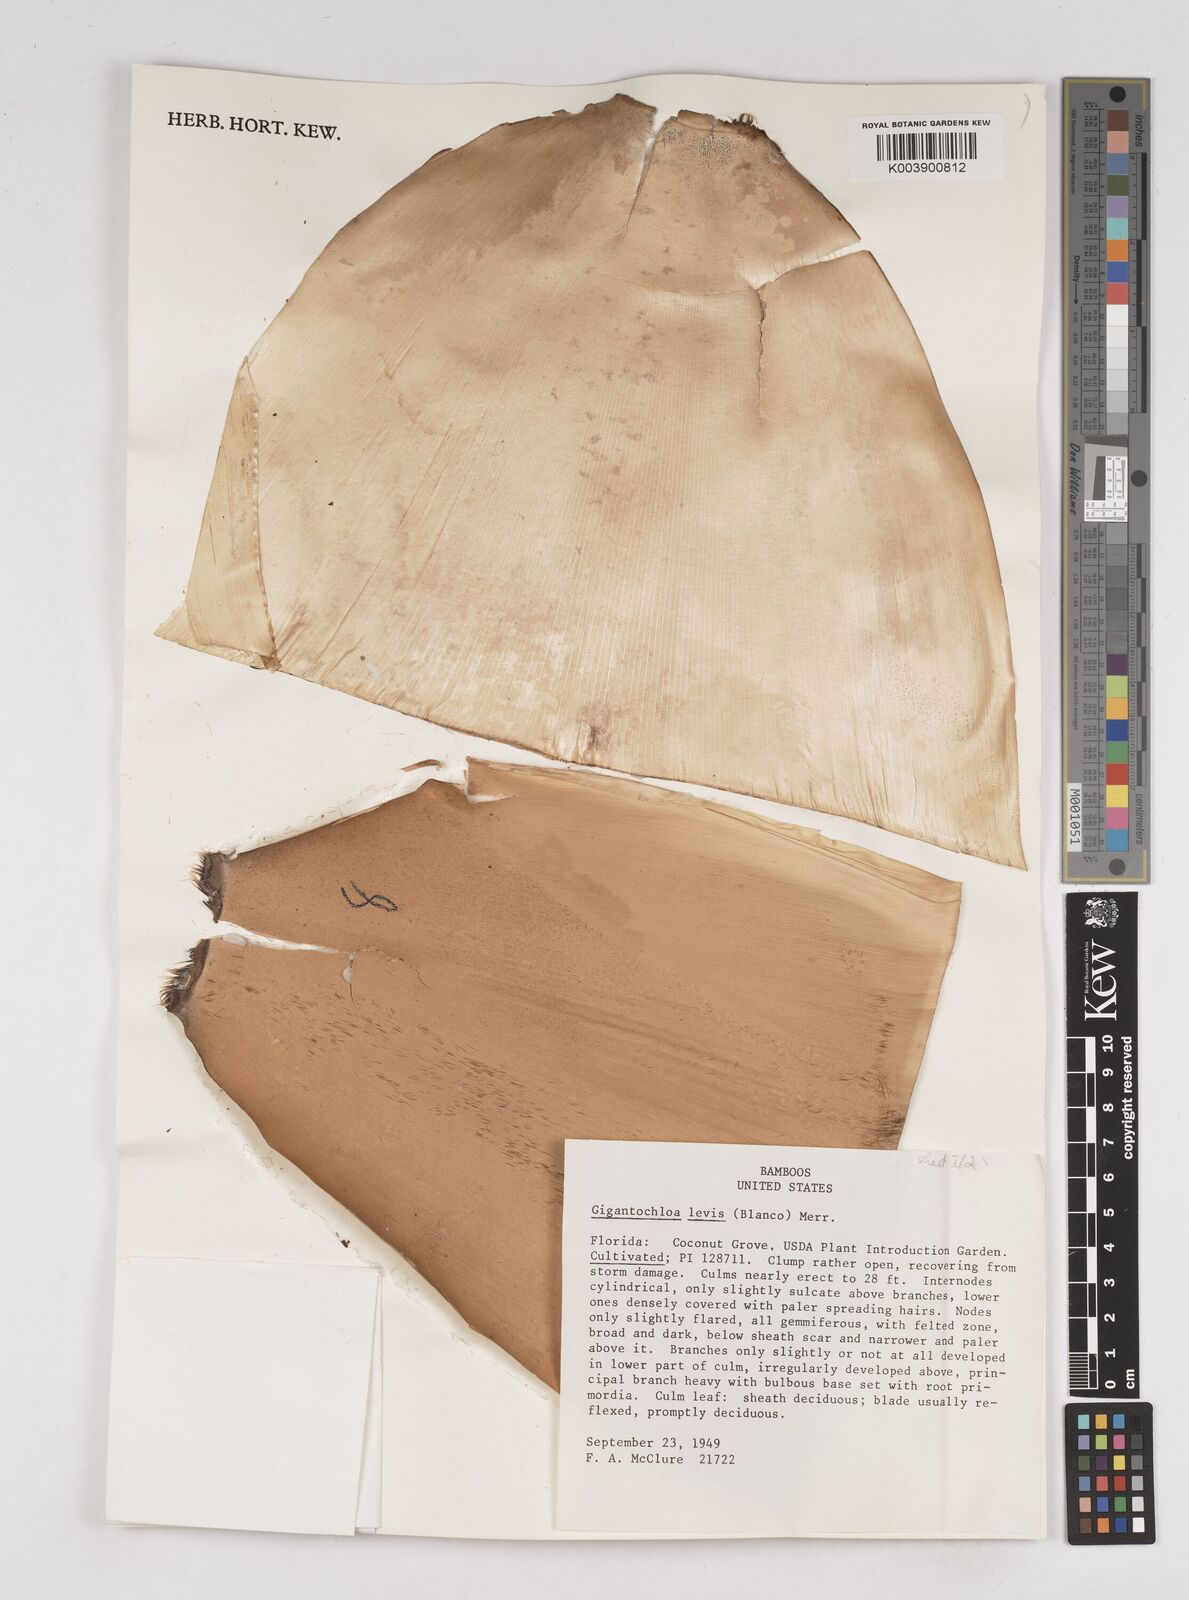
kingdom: Plantae
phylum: Tracheophyta
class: Liliopsida
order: Poales
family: Poaceae
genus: Gigantochloa
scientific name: Gigantochloa levis
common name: Smooth-shoot gigantochloa
